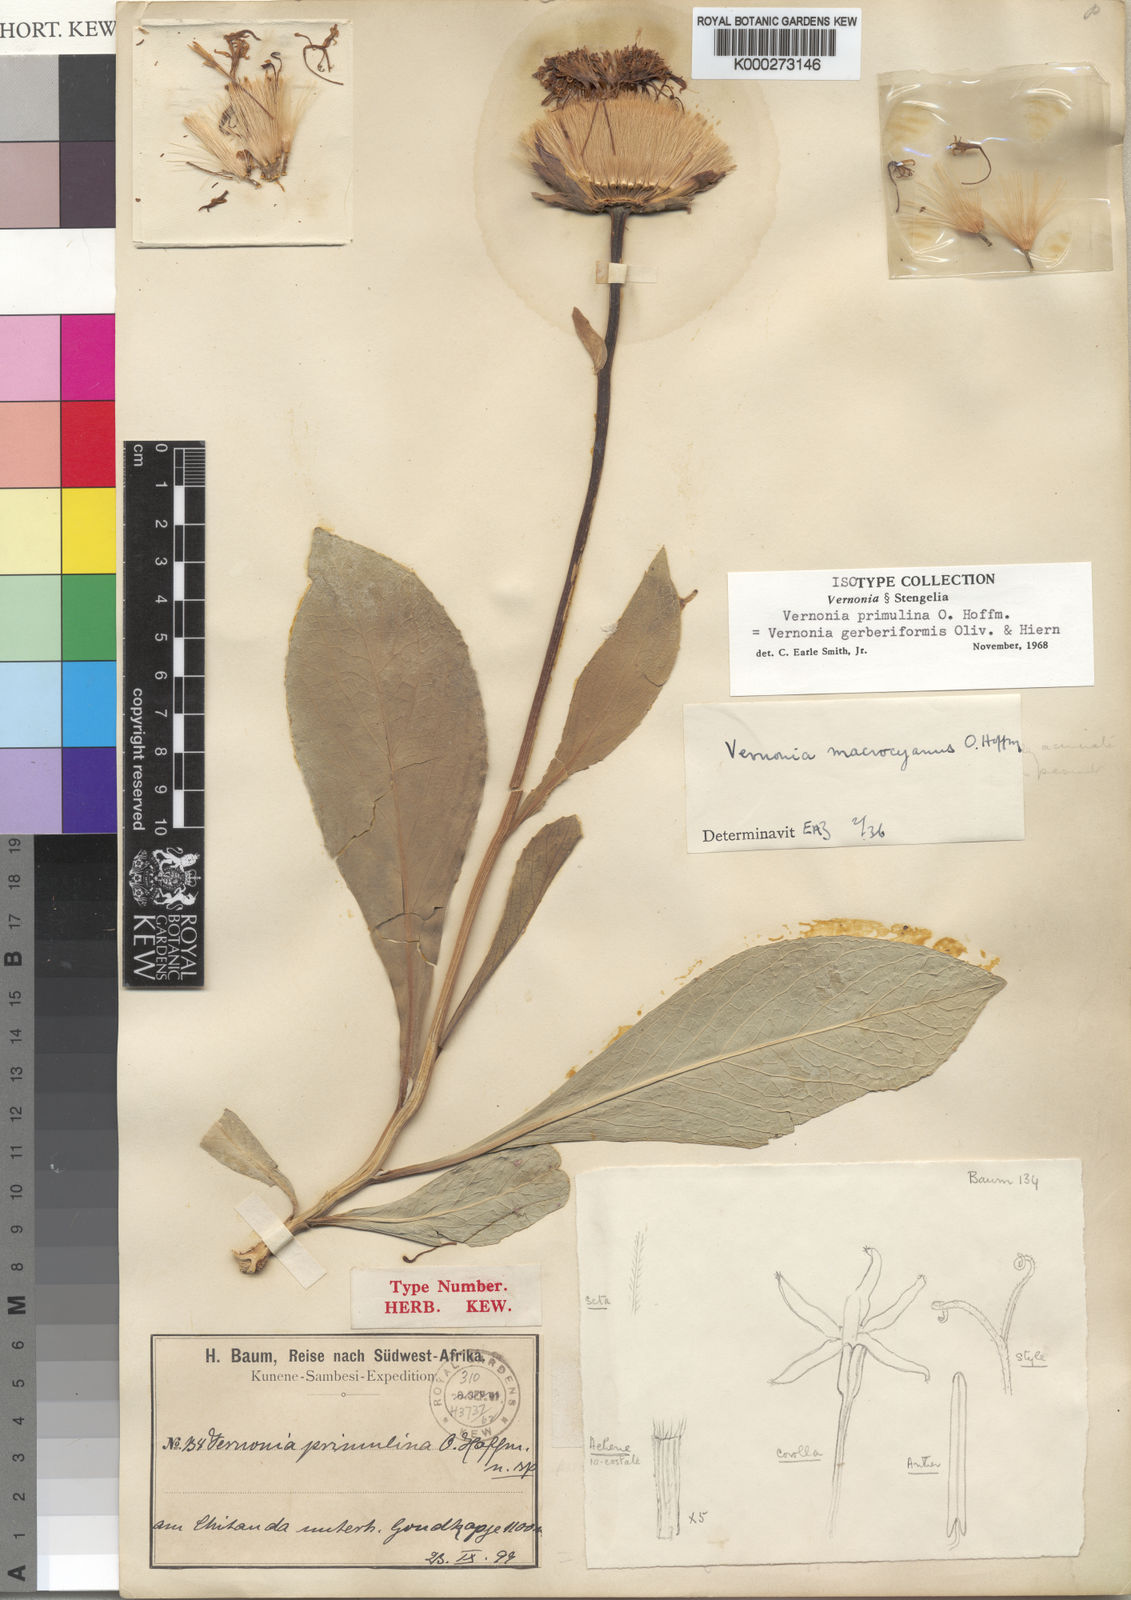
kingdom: Plantae
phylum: Tracheophyta
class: Magnoliopsida
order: Asterales
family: Asteraceae
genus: Linzia
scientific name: Linzia gerberiformis
